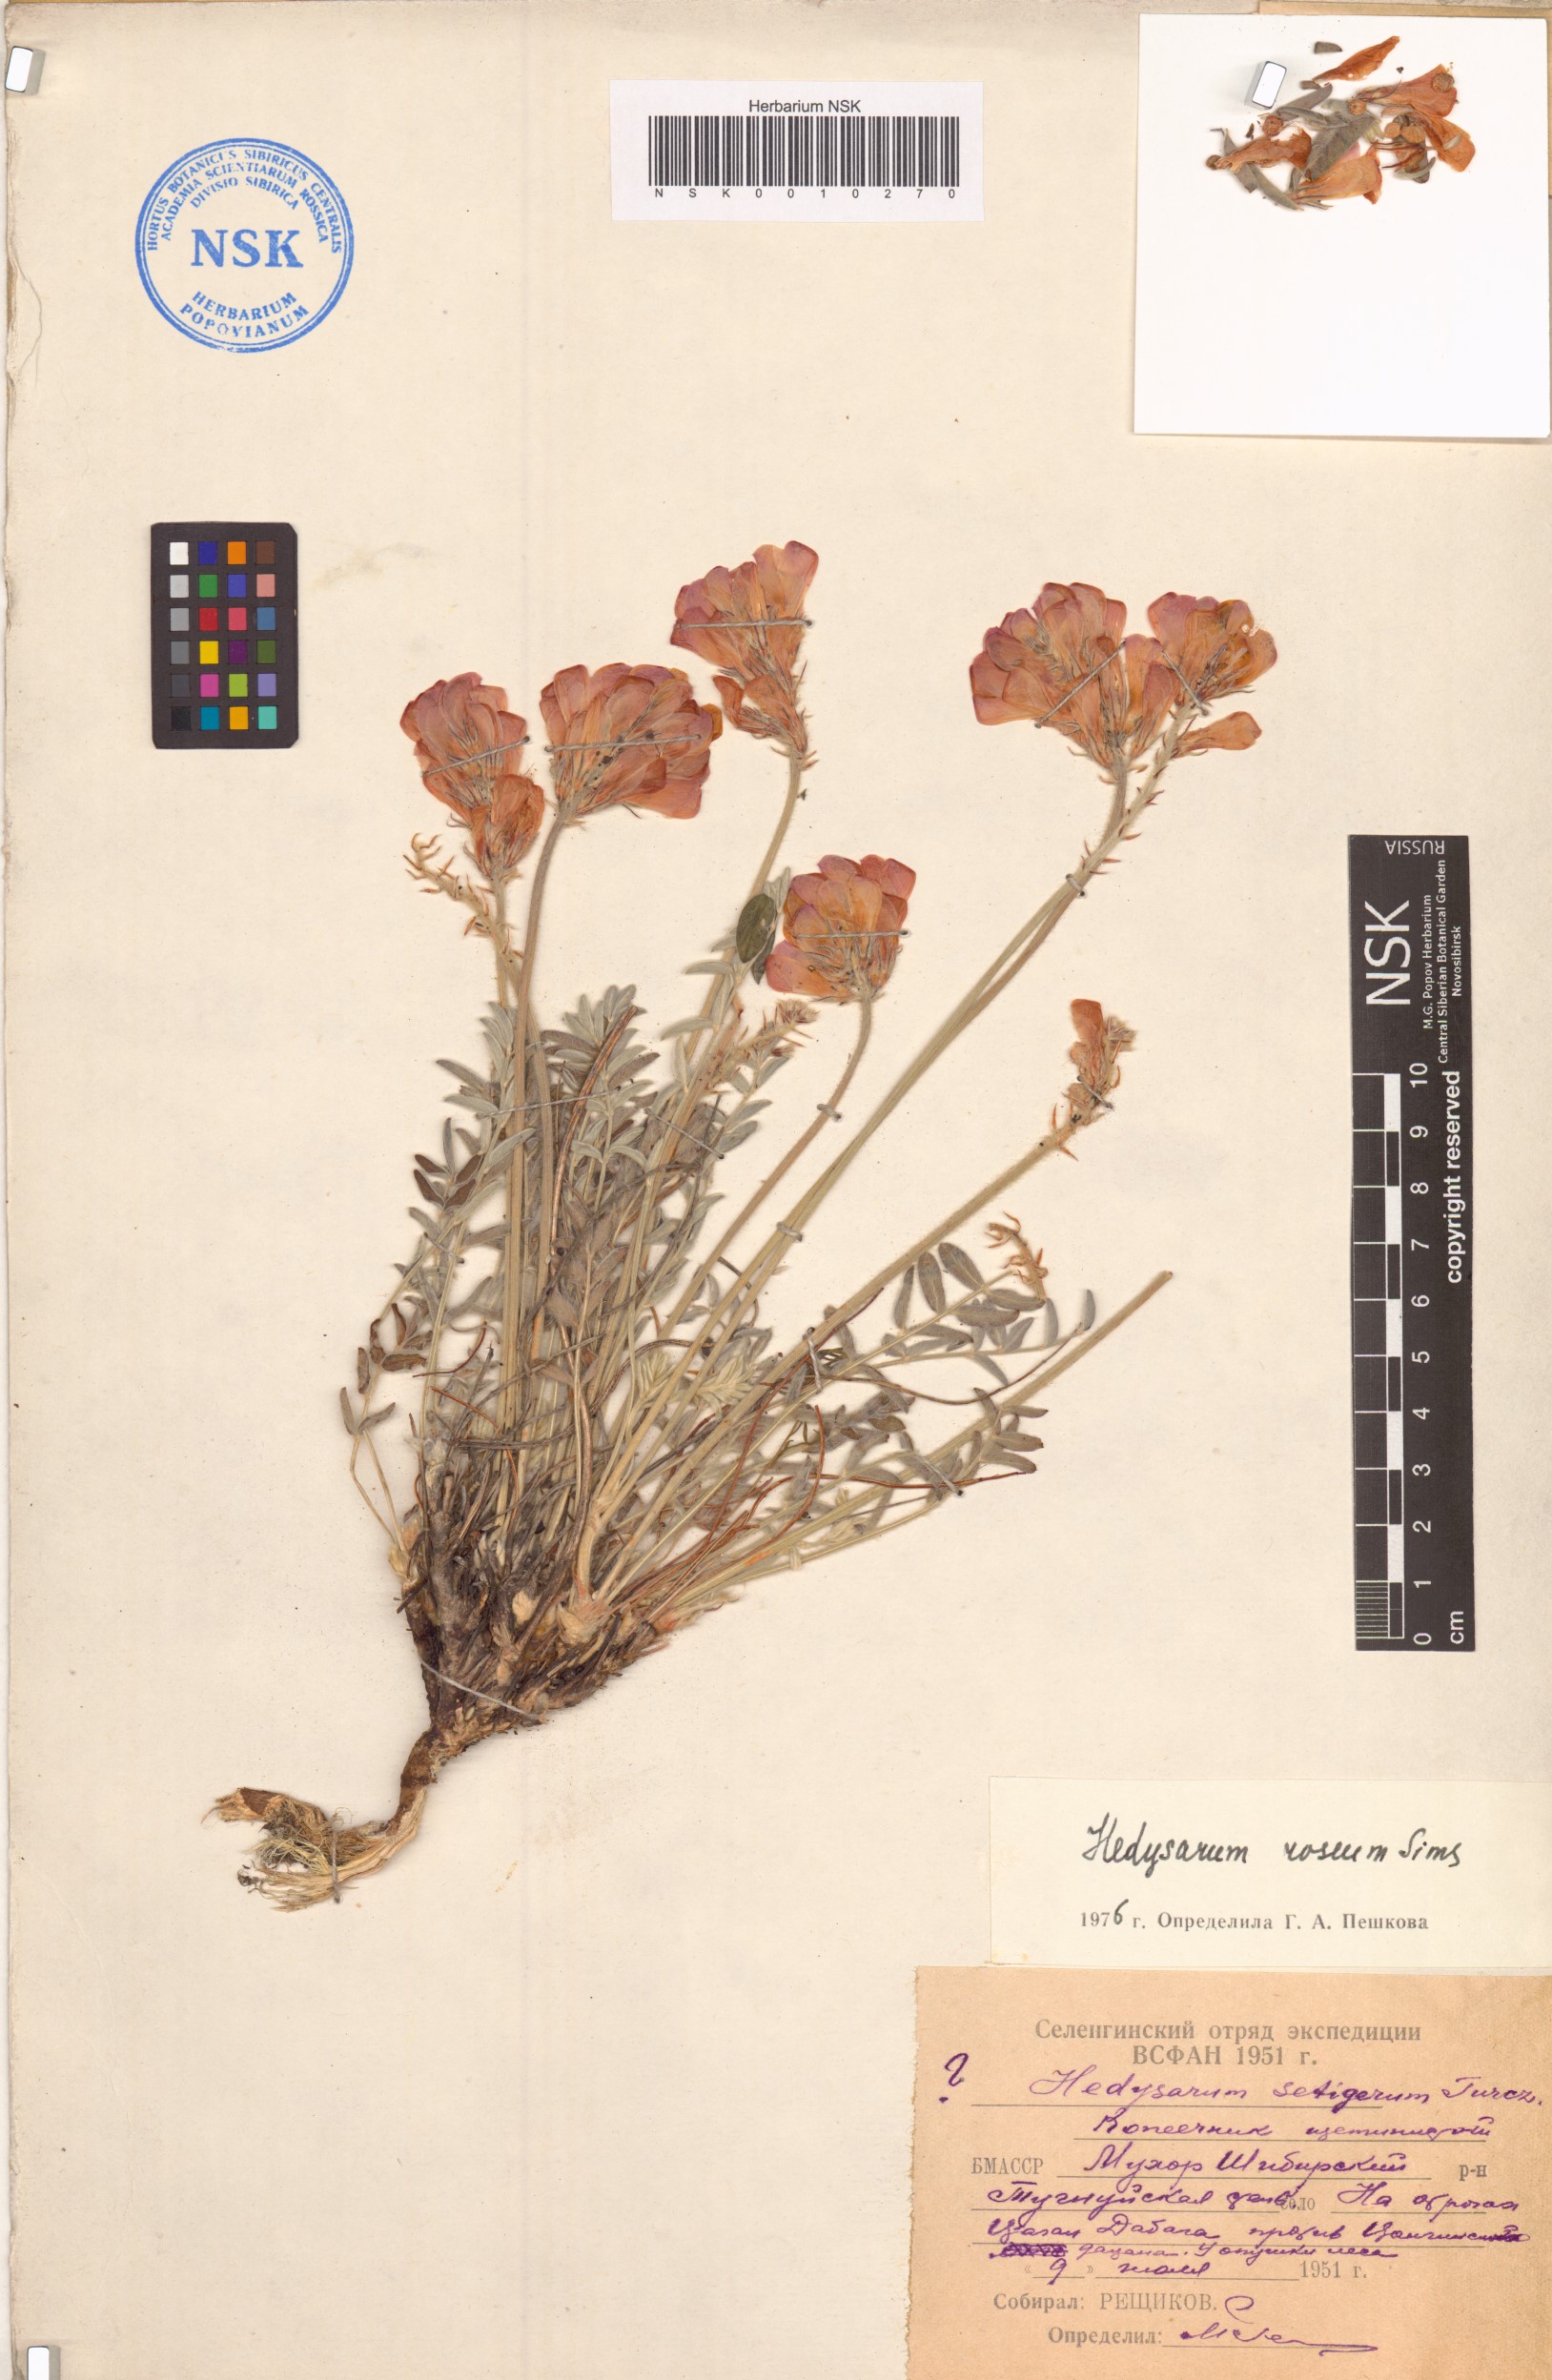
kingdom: Plantae
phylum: Tracheophyta
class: Magnoliopsida
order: Fabales
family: Fabaceae
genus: Hedysarum
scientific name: Hedysarum roseum
